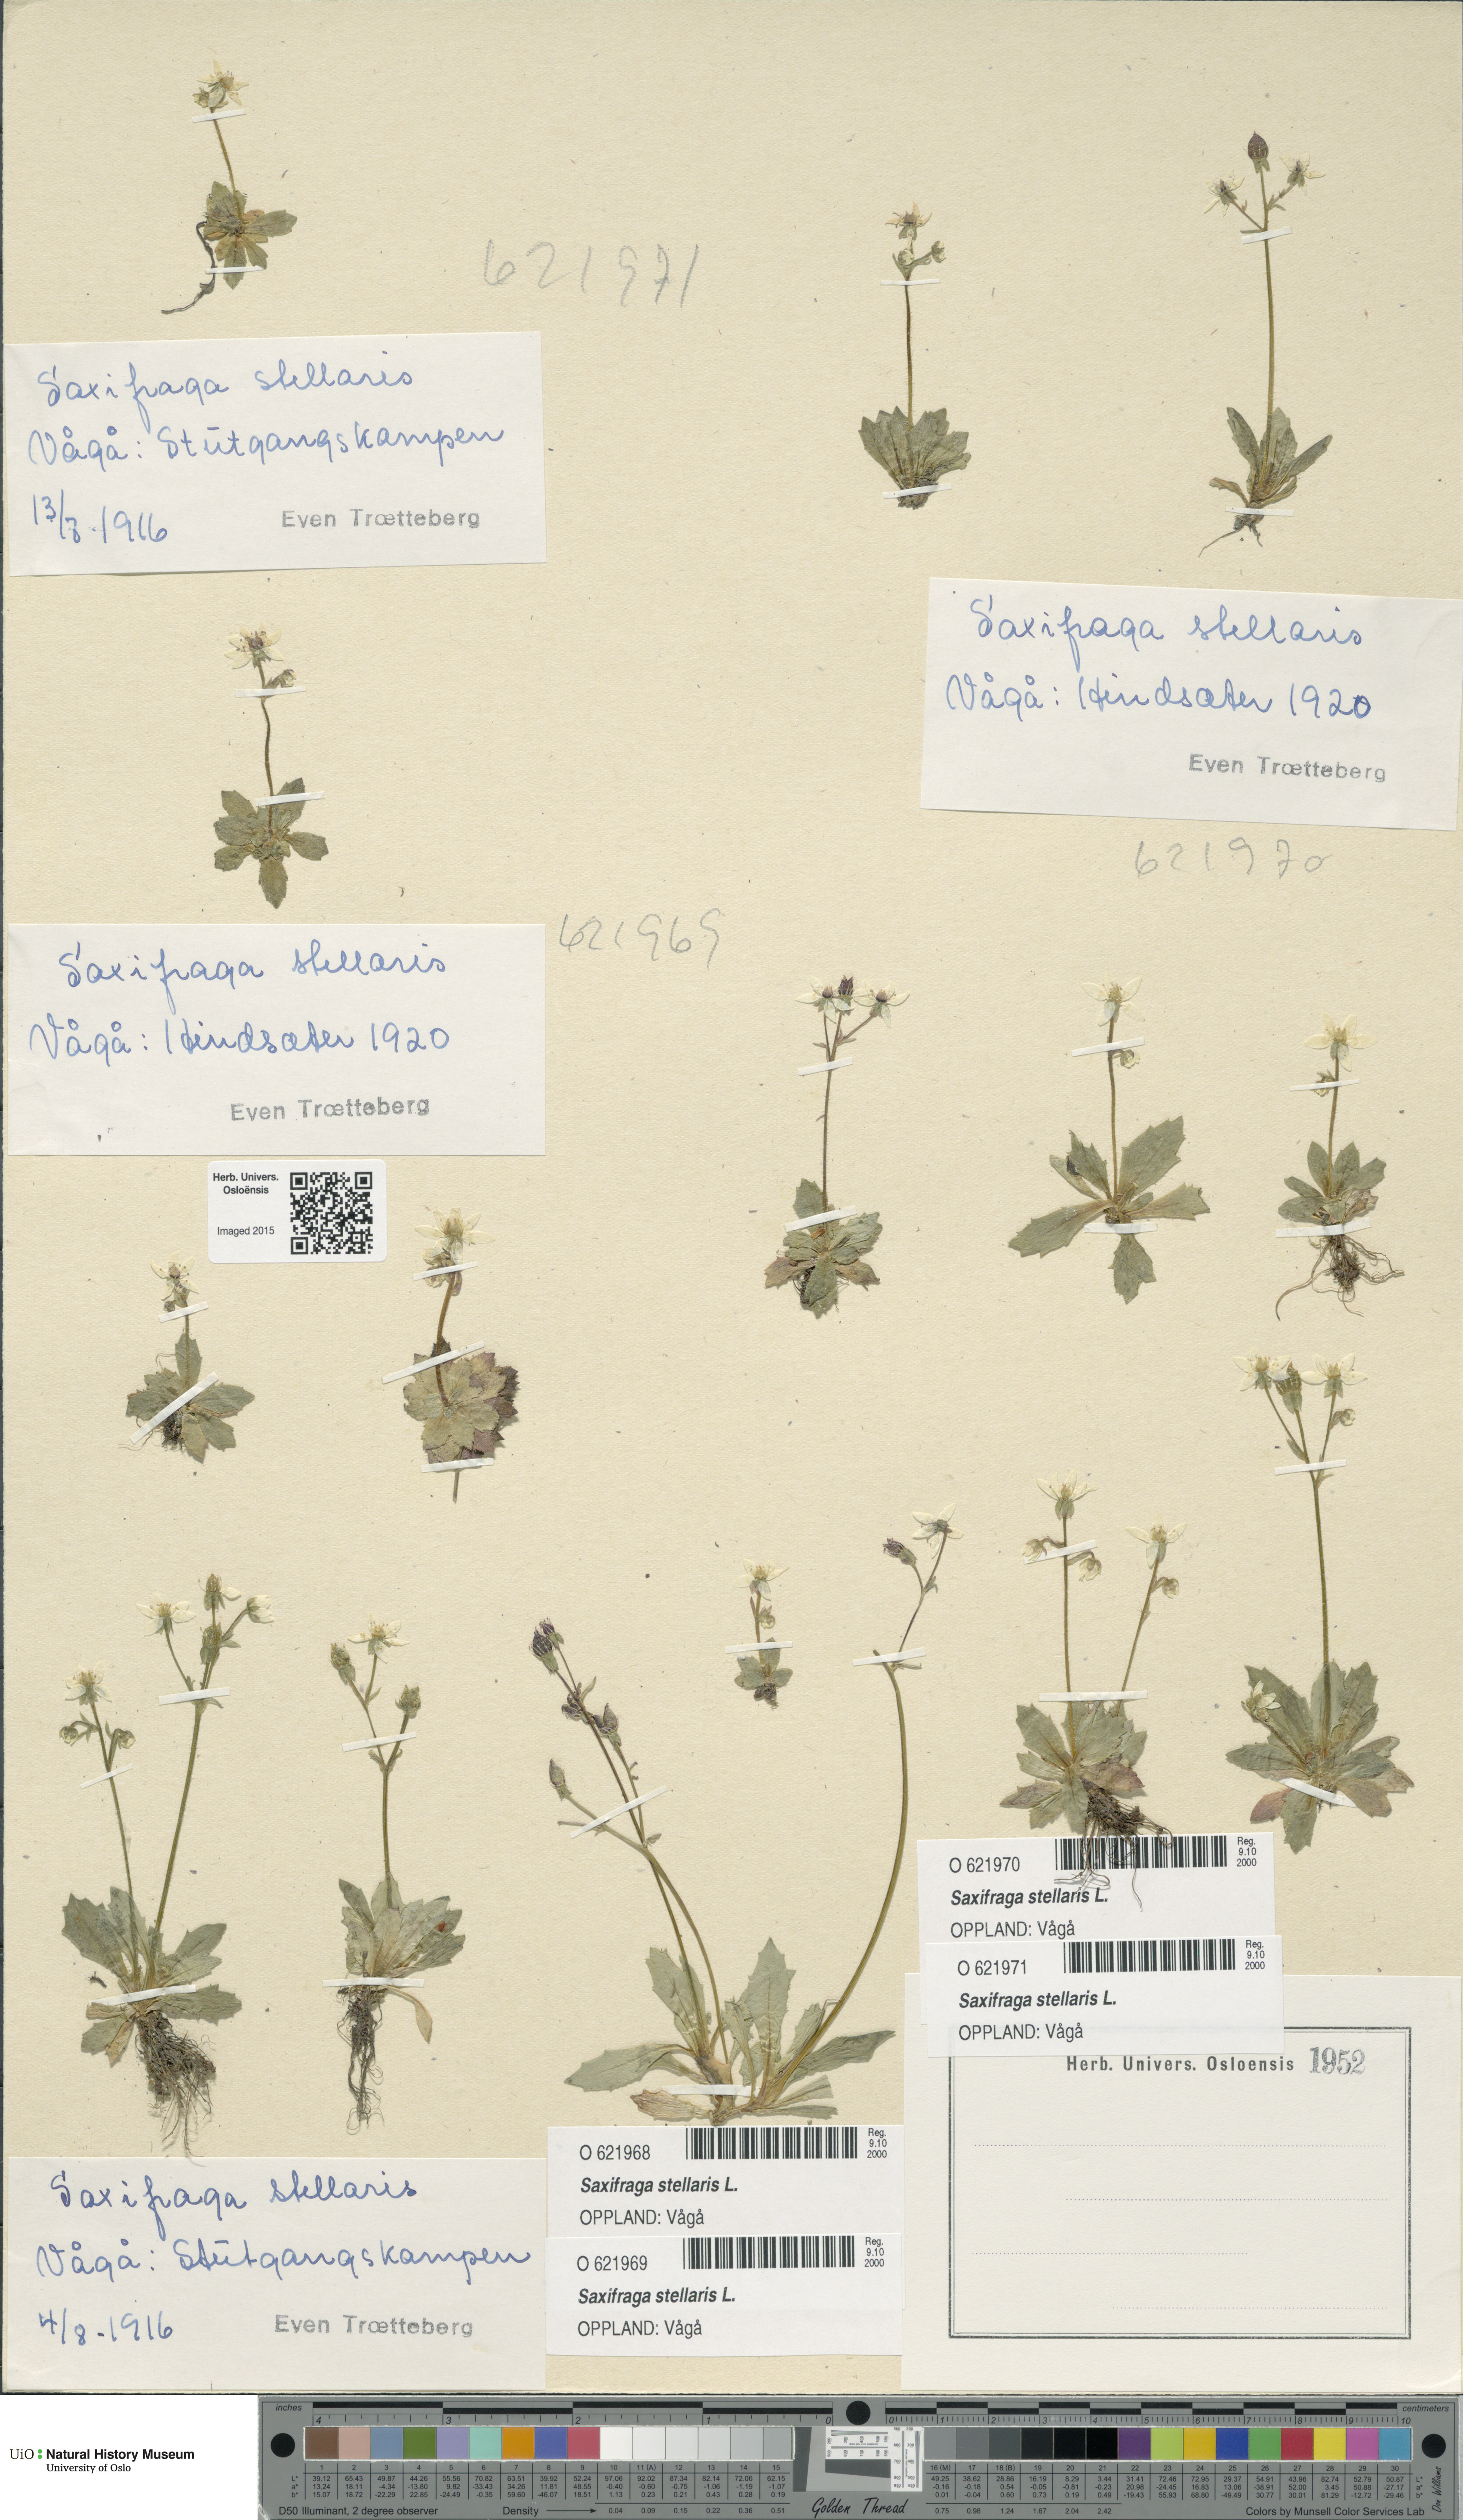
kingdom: Plantae
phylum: Tracheophyta
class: Magnoliopsida
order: Saxifragales
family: Saxifragaceae
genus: Micranthes
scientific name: Micranthes stellaris
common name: Starry saxifrage
